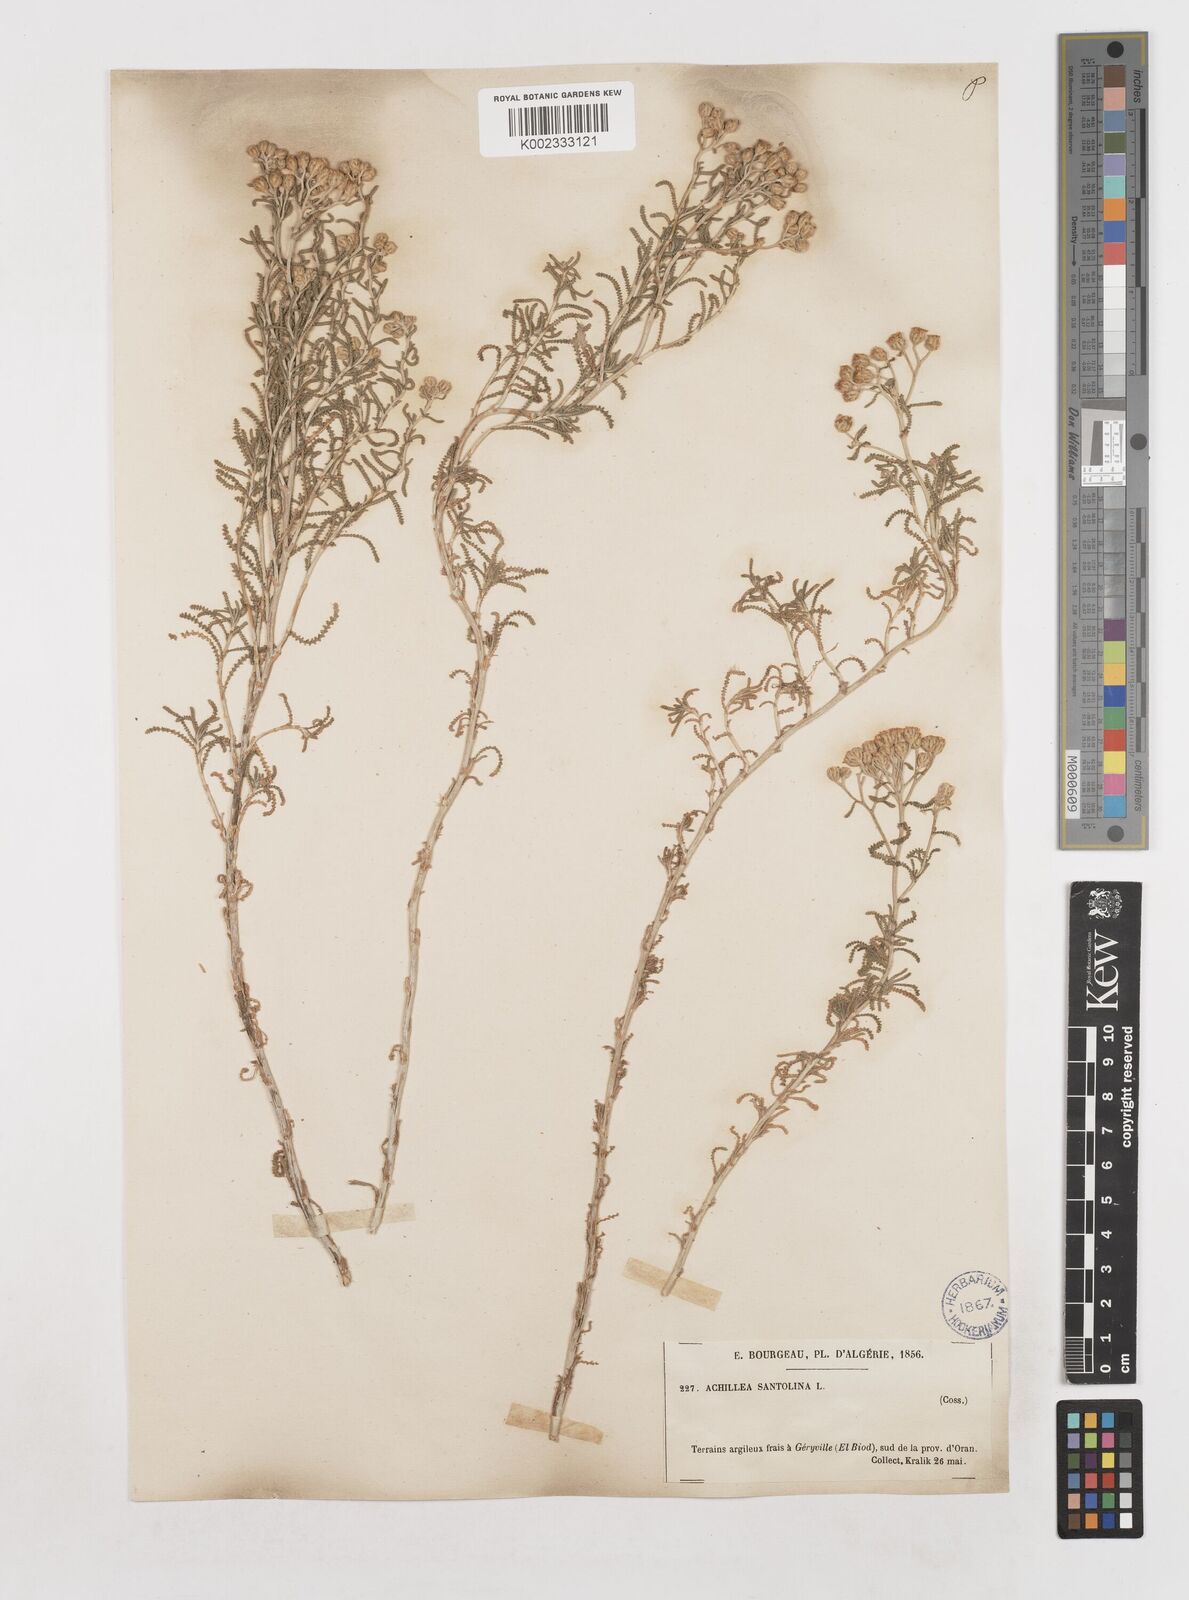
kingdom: Plantae
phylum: Tracheophyta
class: Magnoliopsida
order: Asterales
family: Asteraceae
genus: Achillea
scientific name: Achillea tenuifolia
